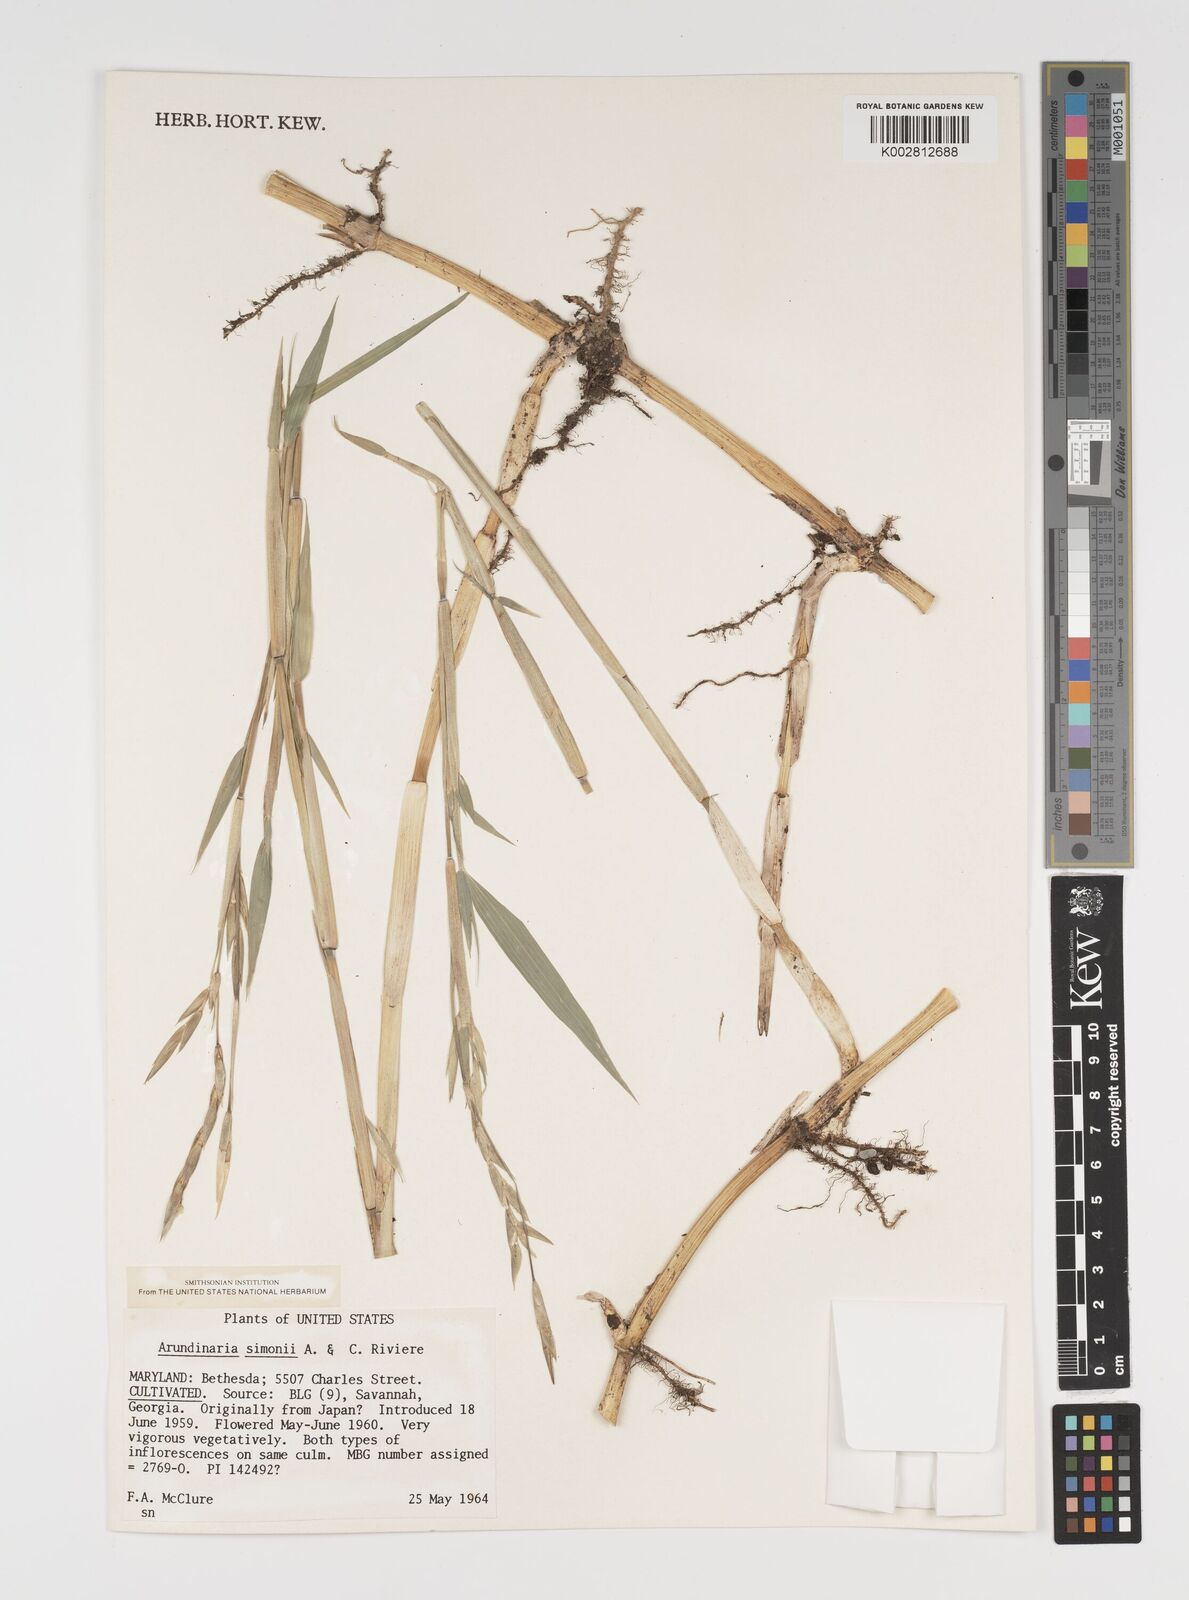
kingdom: Plantae
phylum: Tracheophyta
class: Liliopsida
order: Poales
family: Poaceae
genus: Pleioblastus
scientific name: Pleioblastus simonii
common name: Simon bamboo
